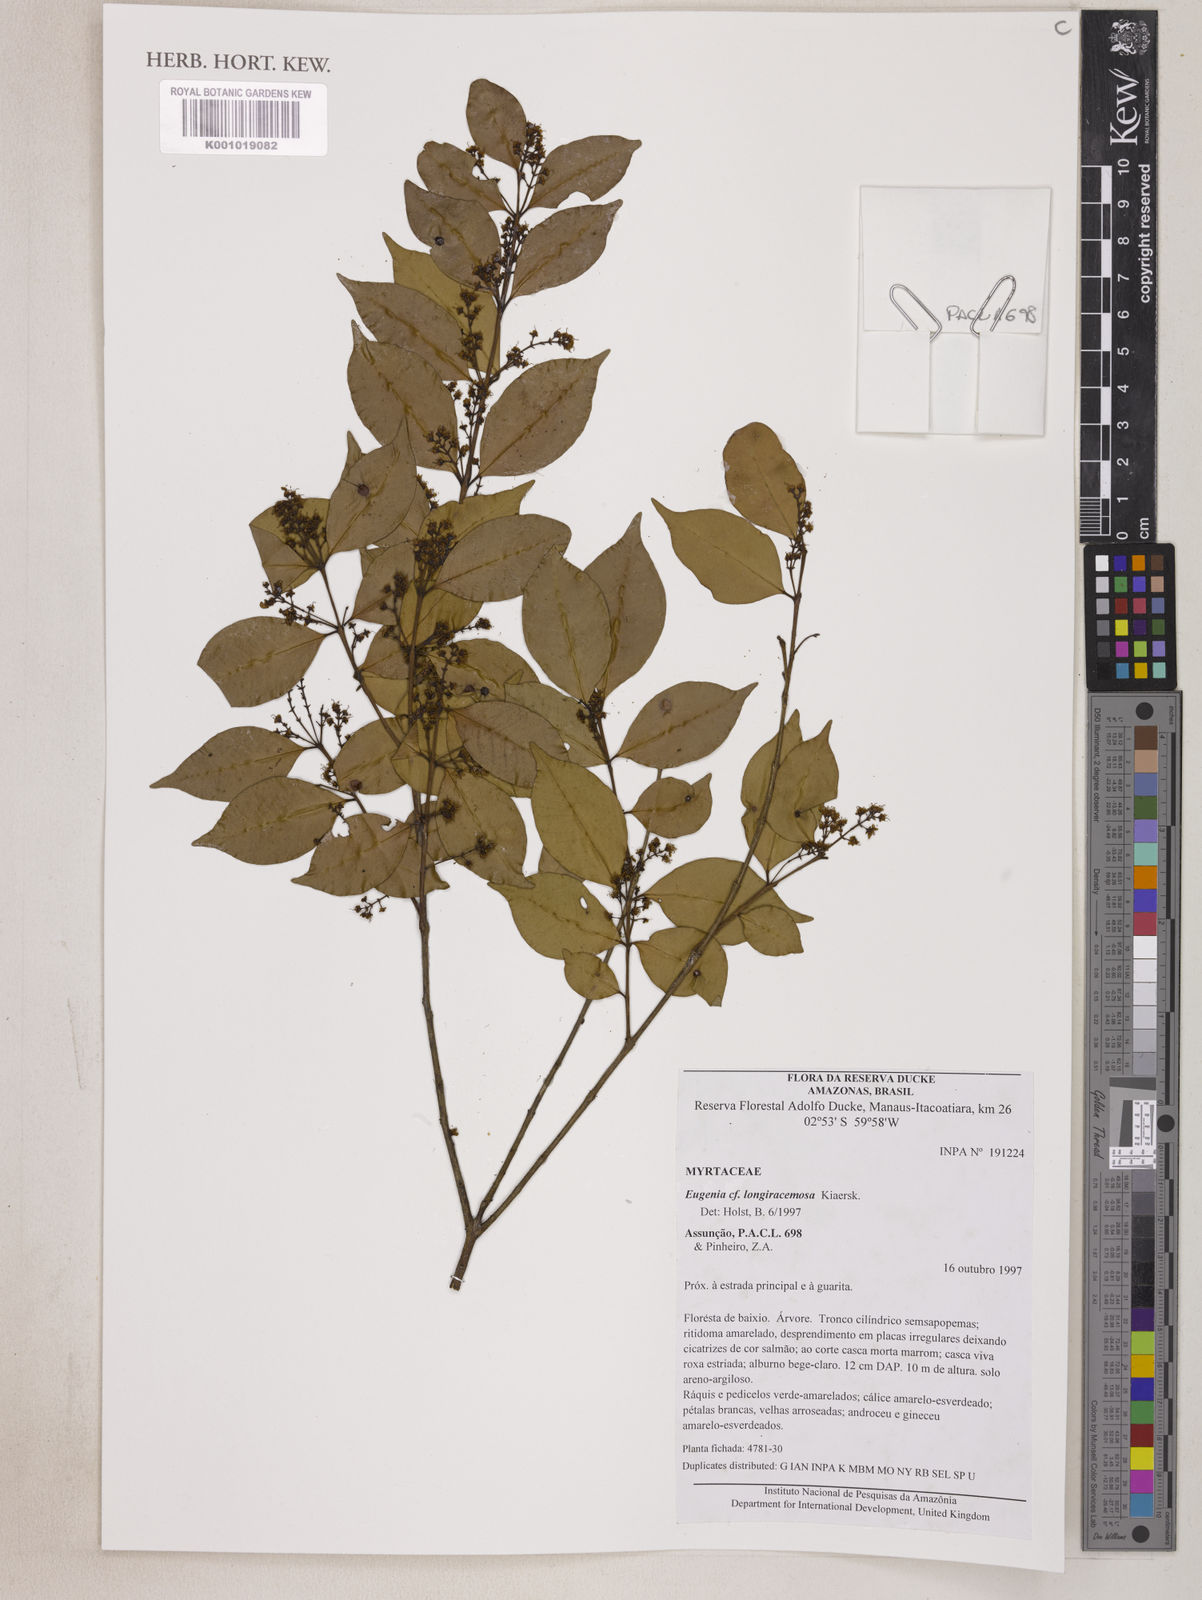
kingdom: Plantae
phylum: Tracheophyta
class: Magnoliopsida
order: Myrtales
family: Myrtaceae
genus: Eugenia
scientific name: Eugenia longiracemosa
